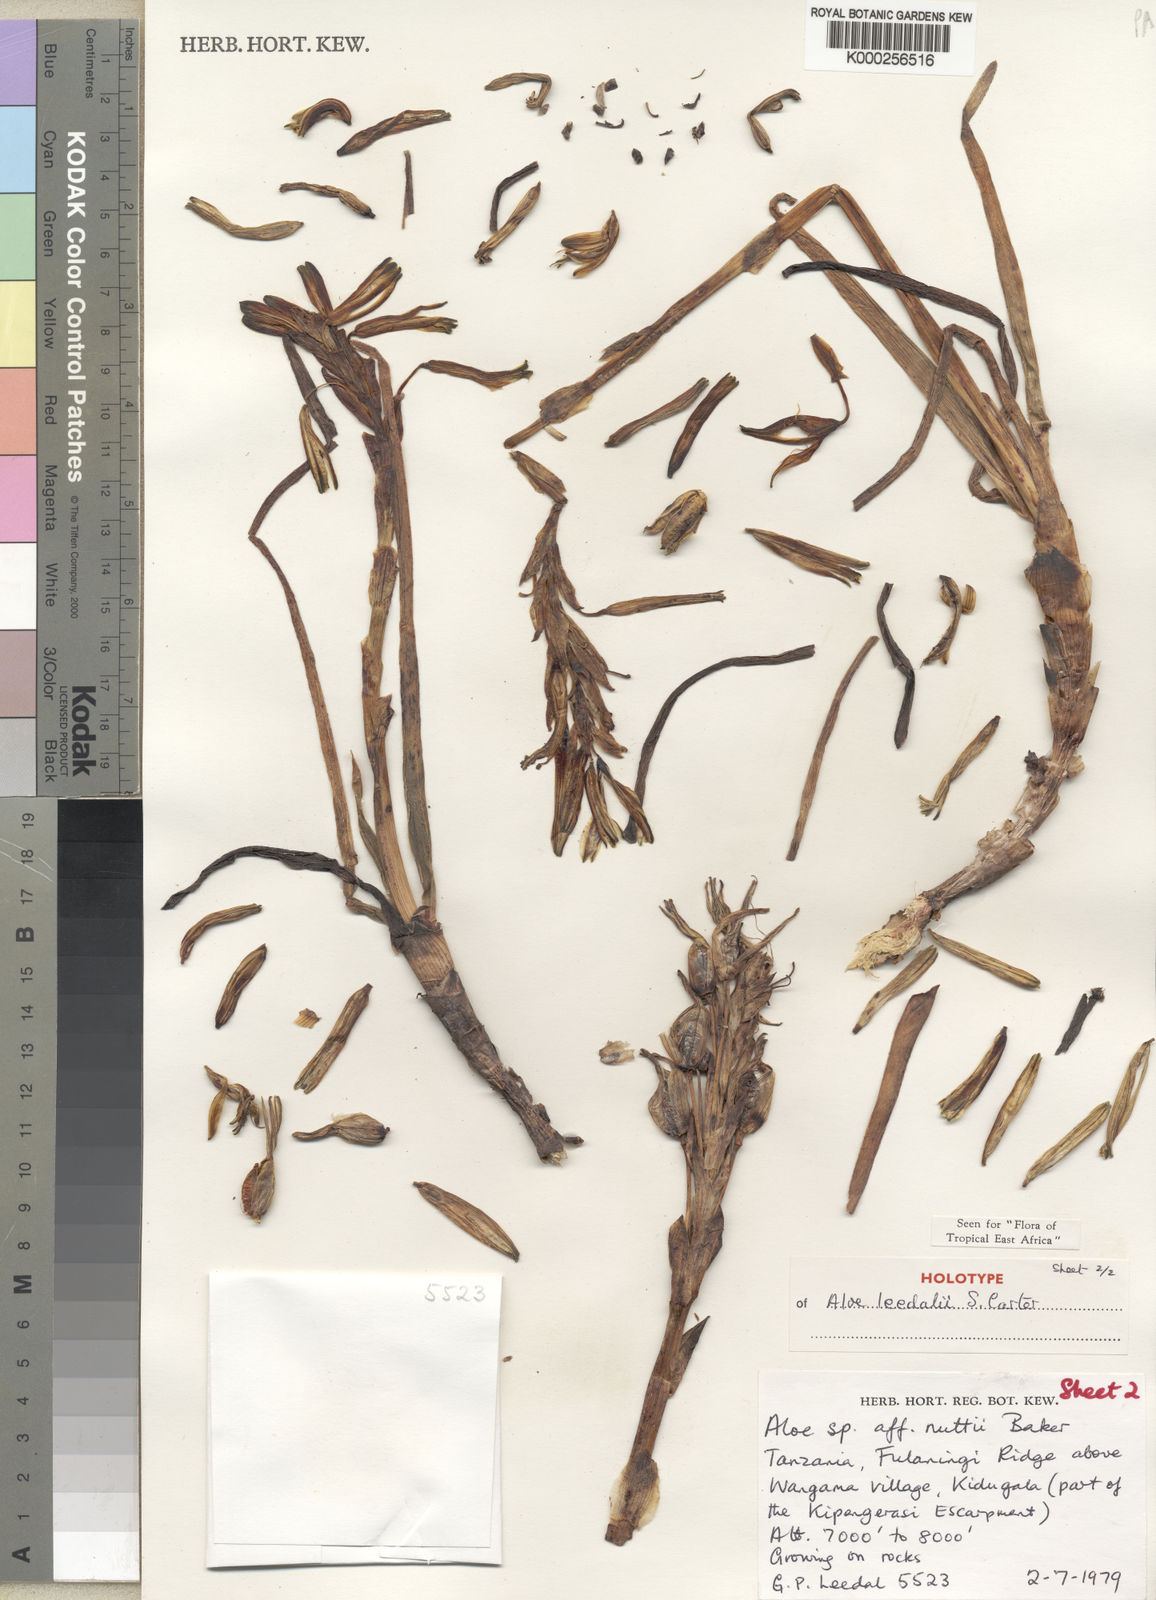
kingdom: Plantae
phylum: Tracheophyta
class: Liliopsida
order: Asparagales
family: Asphodelaceae
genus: Aloe
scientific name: Aloe leedalii
